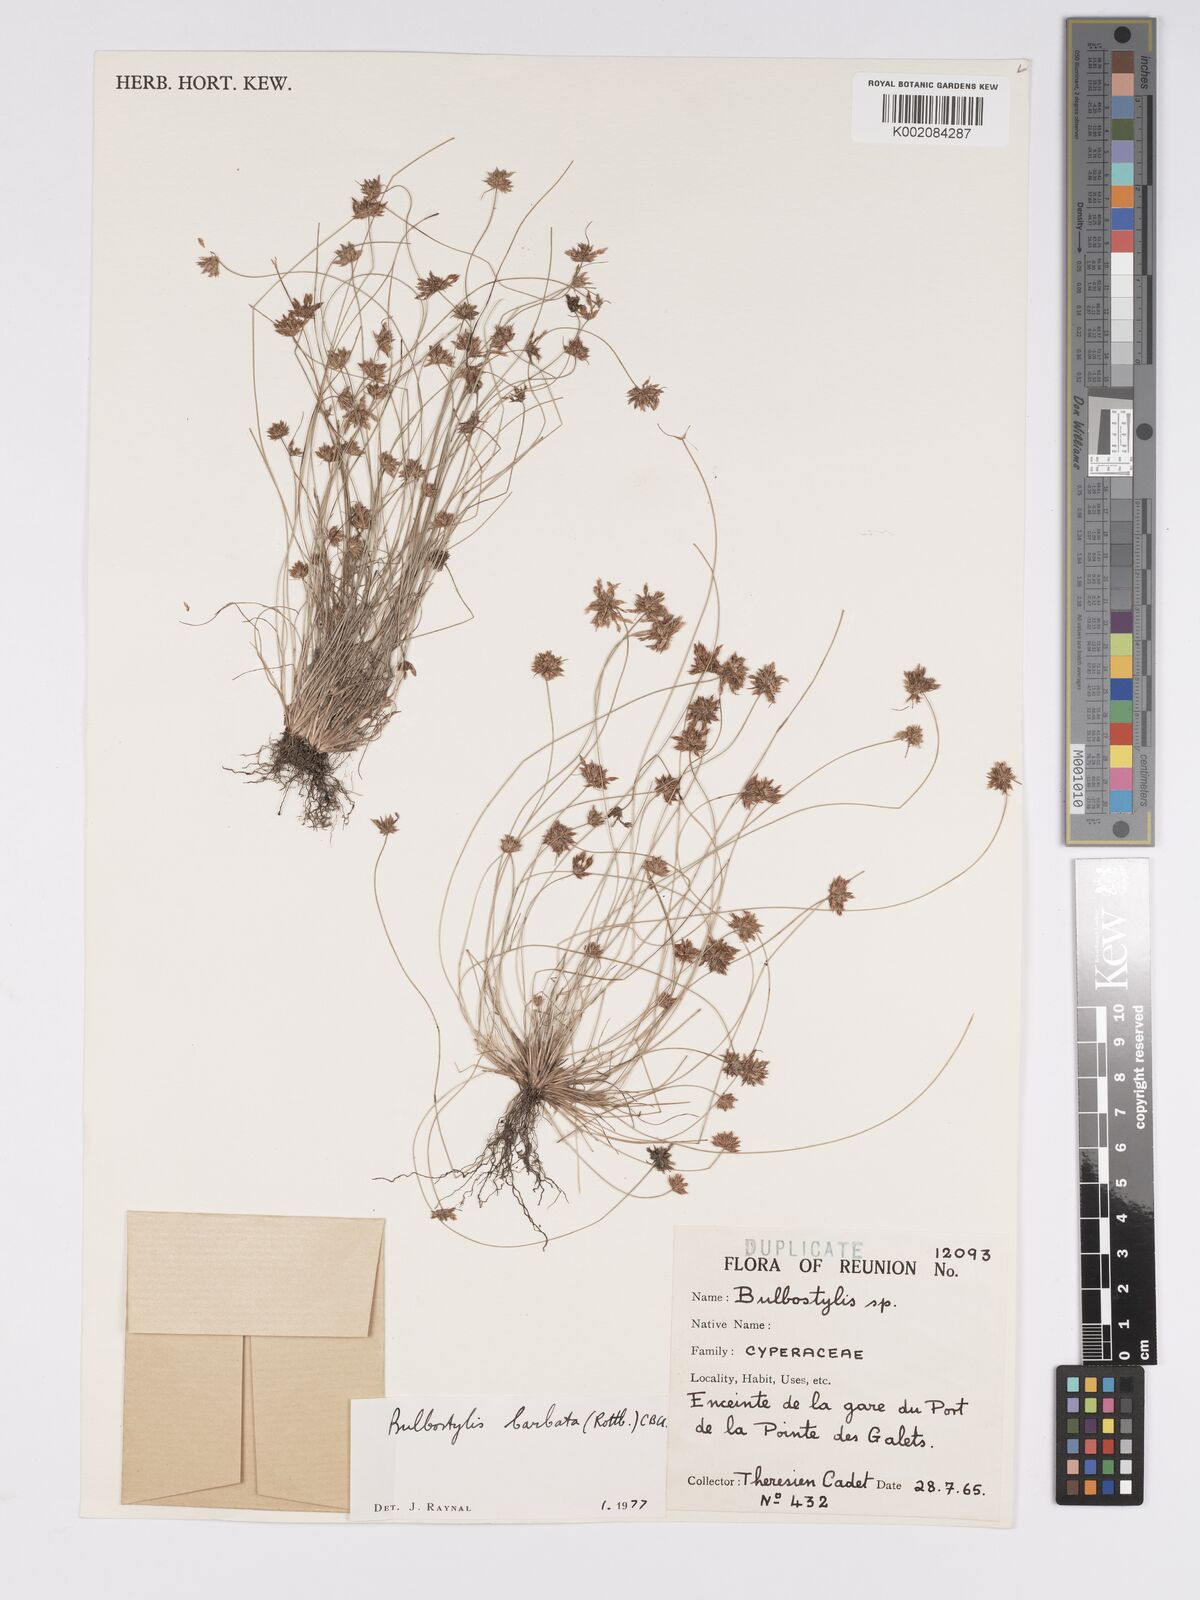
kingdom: Plantae
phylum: Tracheophyta
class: Liliopsida
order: Poales
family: Cyperaceae
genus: Bulbostylis
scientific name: Bulbostylis barbata
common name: Watergrass
